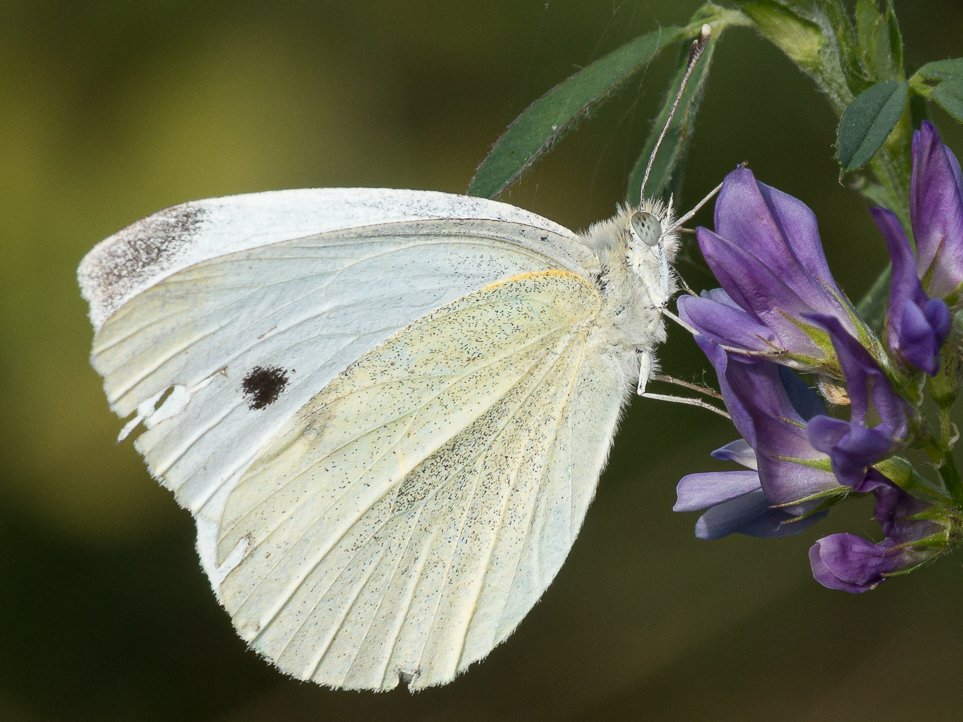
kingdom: Animalia
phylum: Arthropoda
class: Insecta
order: Lepidoptera
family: Pieridae
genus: Pieris
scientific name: Pieris rapae
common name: Cabbage White
